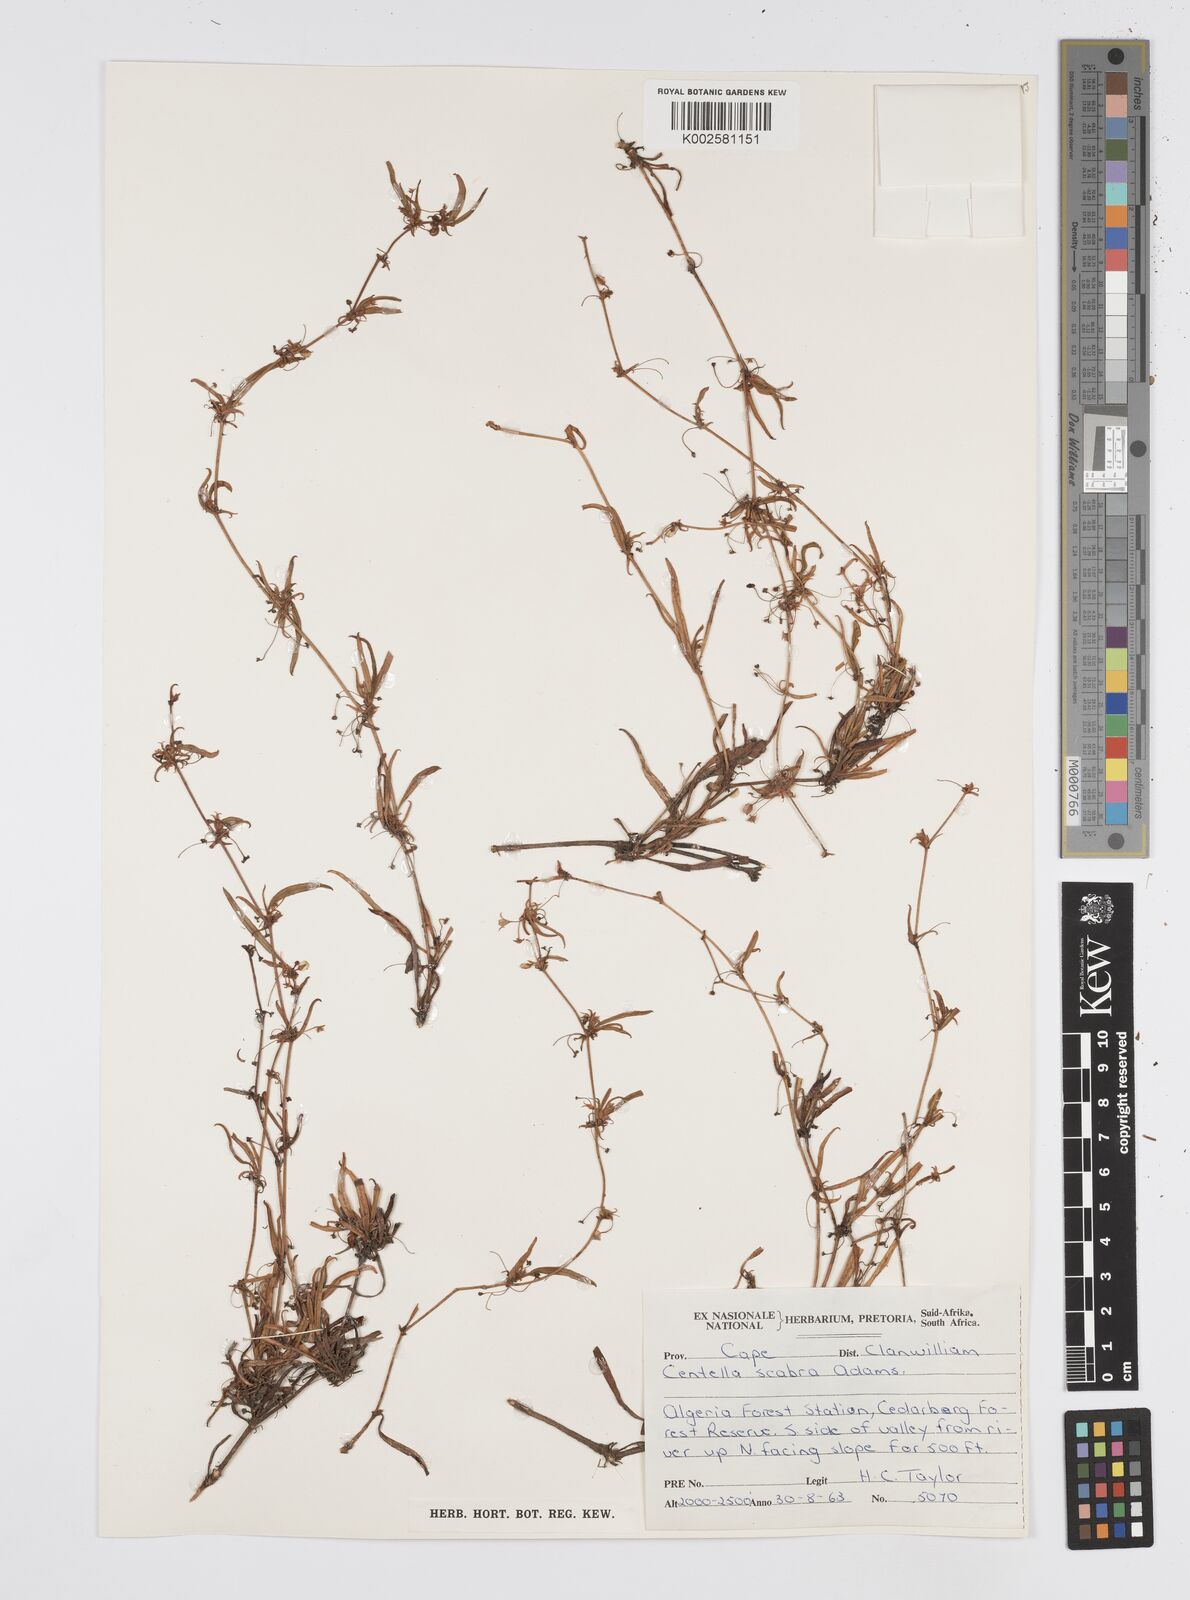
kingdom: Plantae
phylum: Tracheophyta
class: Magnoliopsida
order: Apiales
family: Apiaceae
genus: Centella
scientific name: Centella scabra
